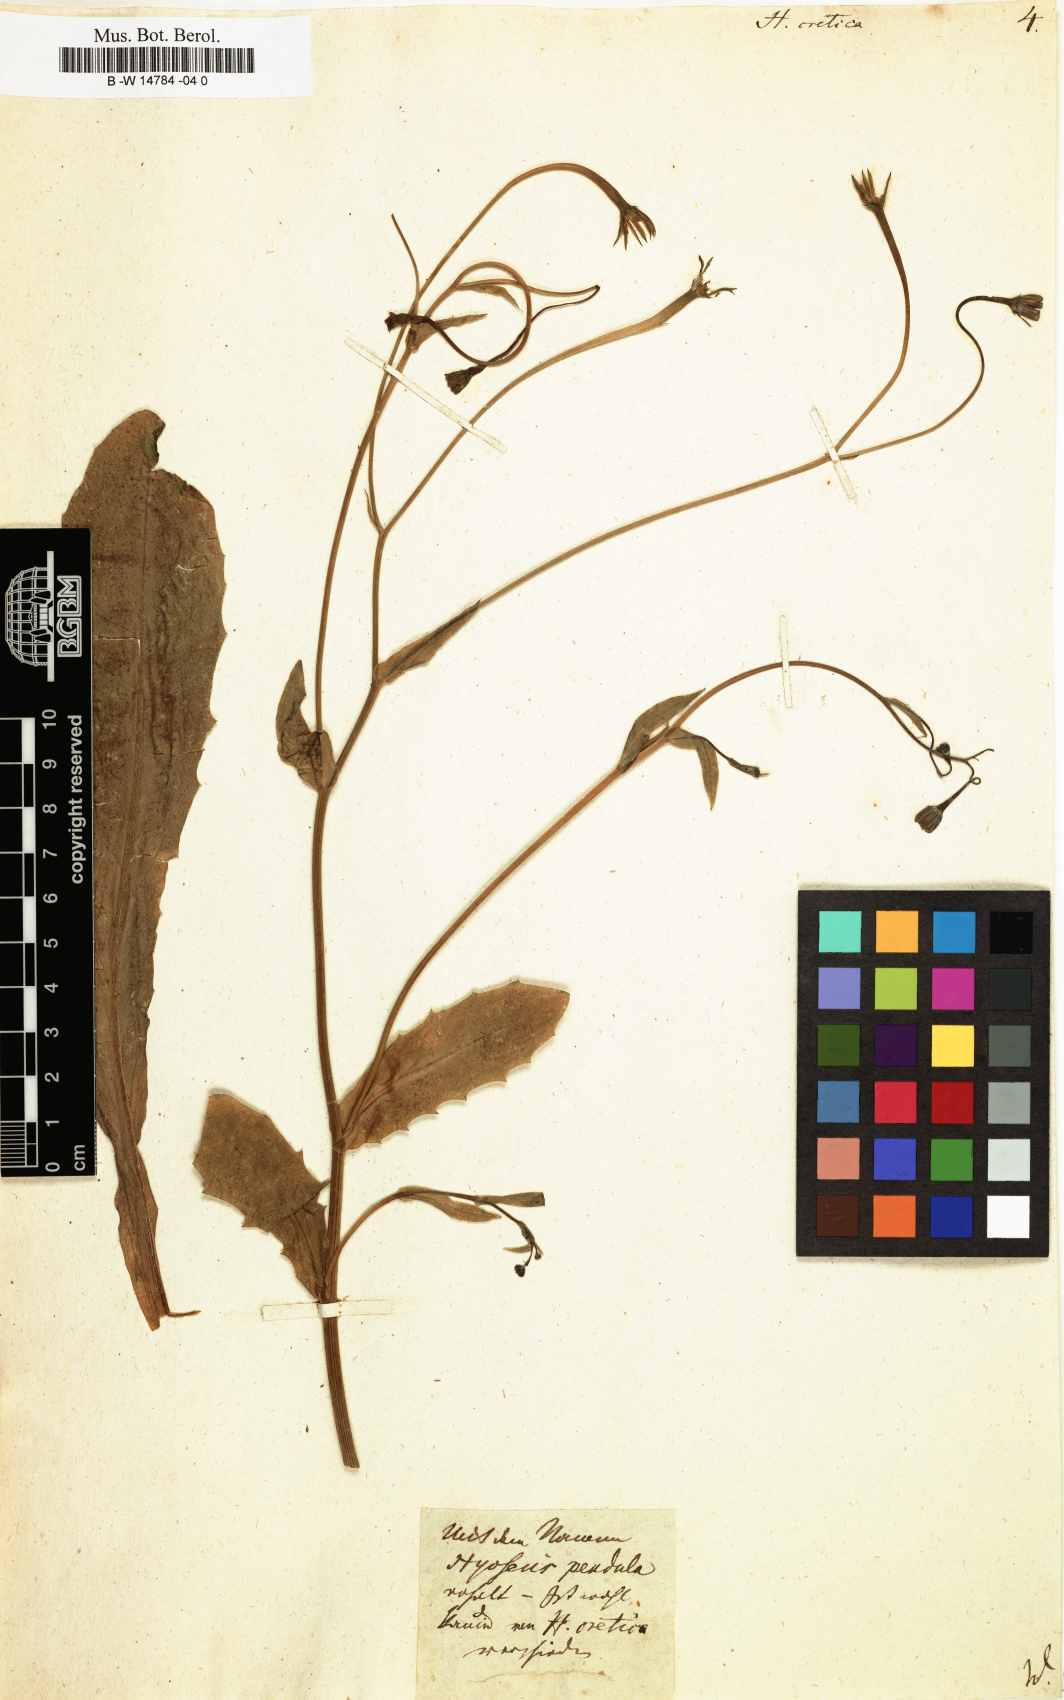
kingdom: Plantae
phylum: Tracheophyta
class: Magnoliopsida
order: Asterales
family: Asteraceae
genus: Hedypnois
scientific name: Hedypnois cretica
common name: Scaly hawkbit
